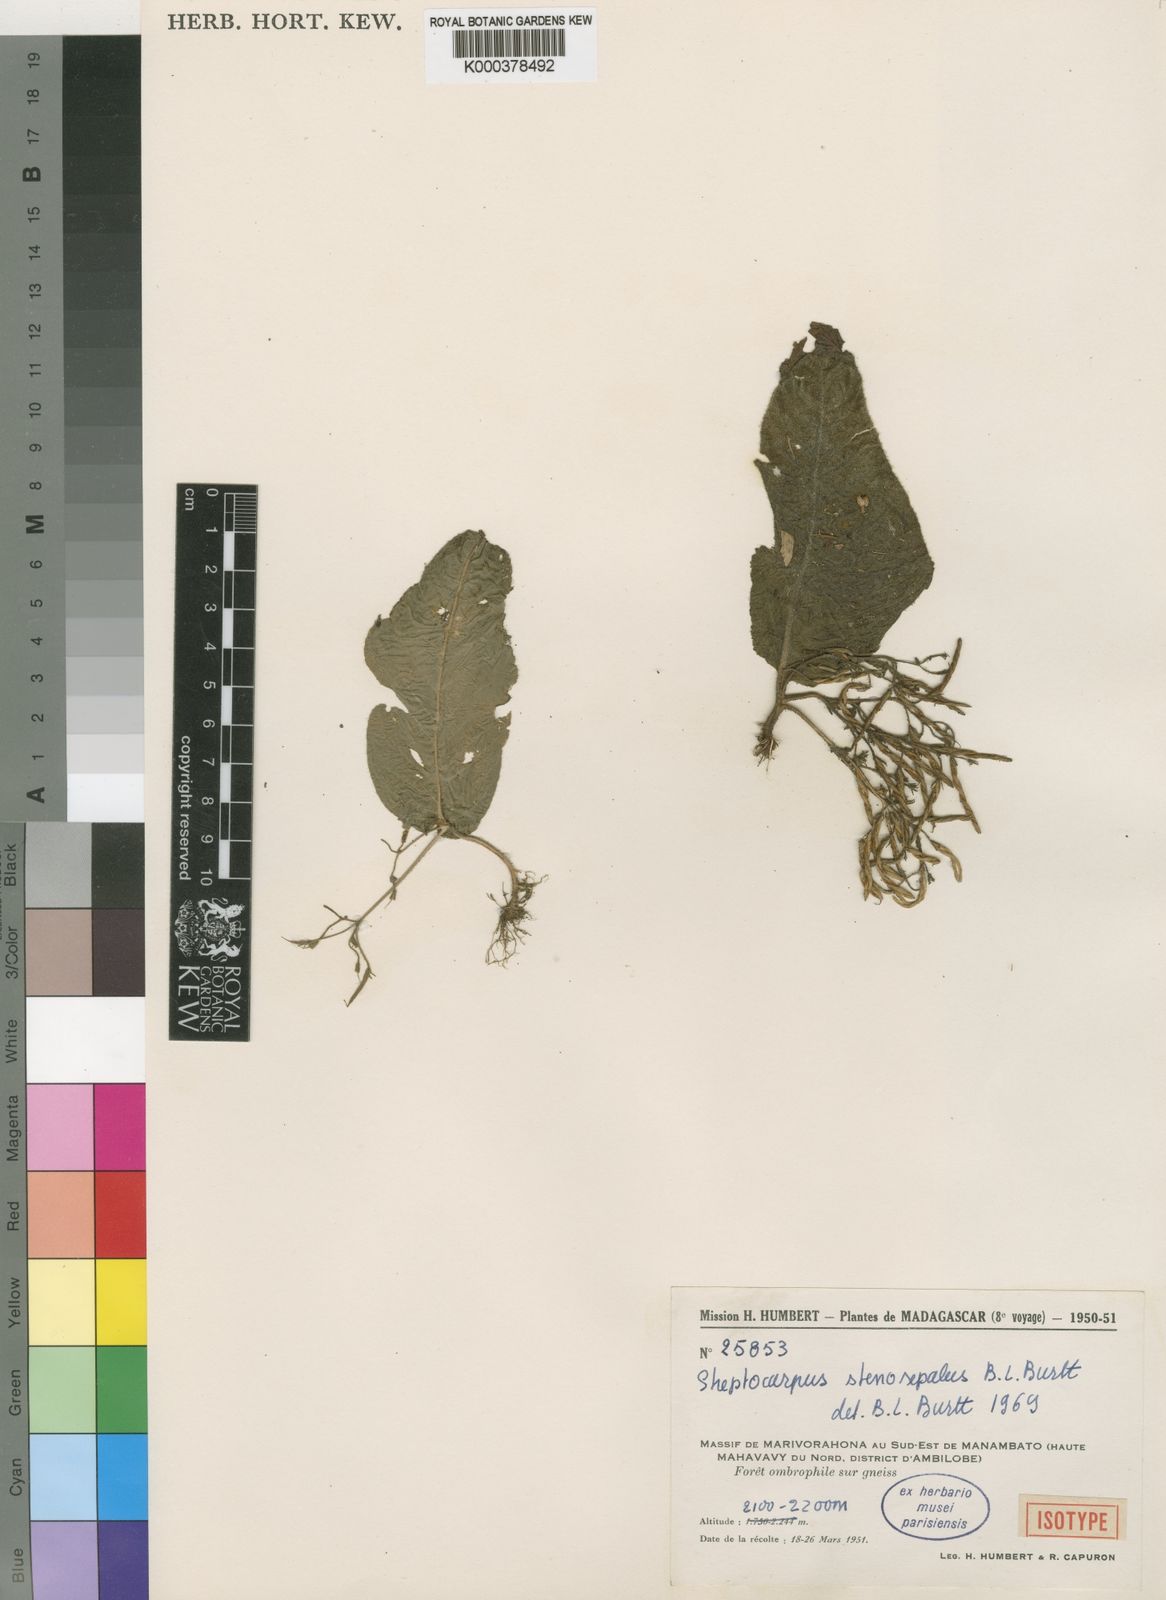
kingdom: Plantae
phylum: Tracheophyta
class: Magnoliopsida
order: Lamiales
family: Gesneriaceae
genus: Streptocarpus
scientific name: Streptocarpus stenosepalus
